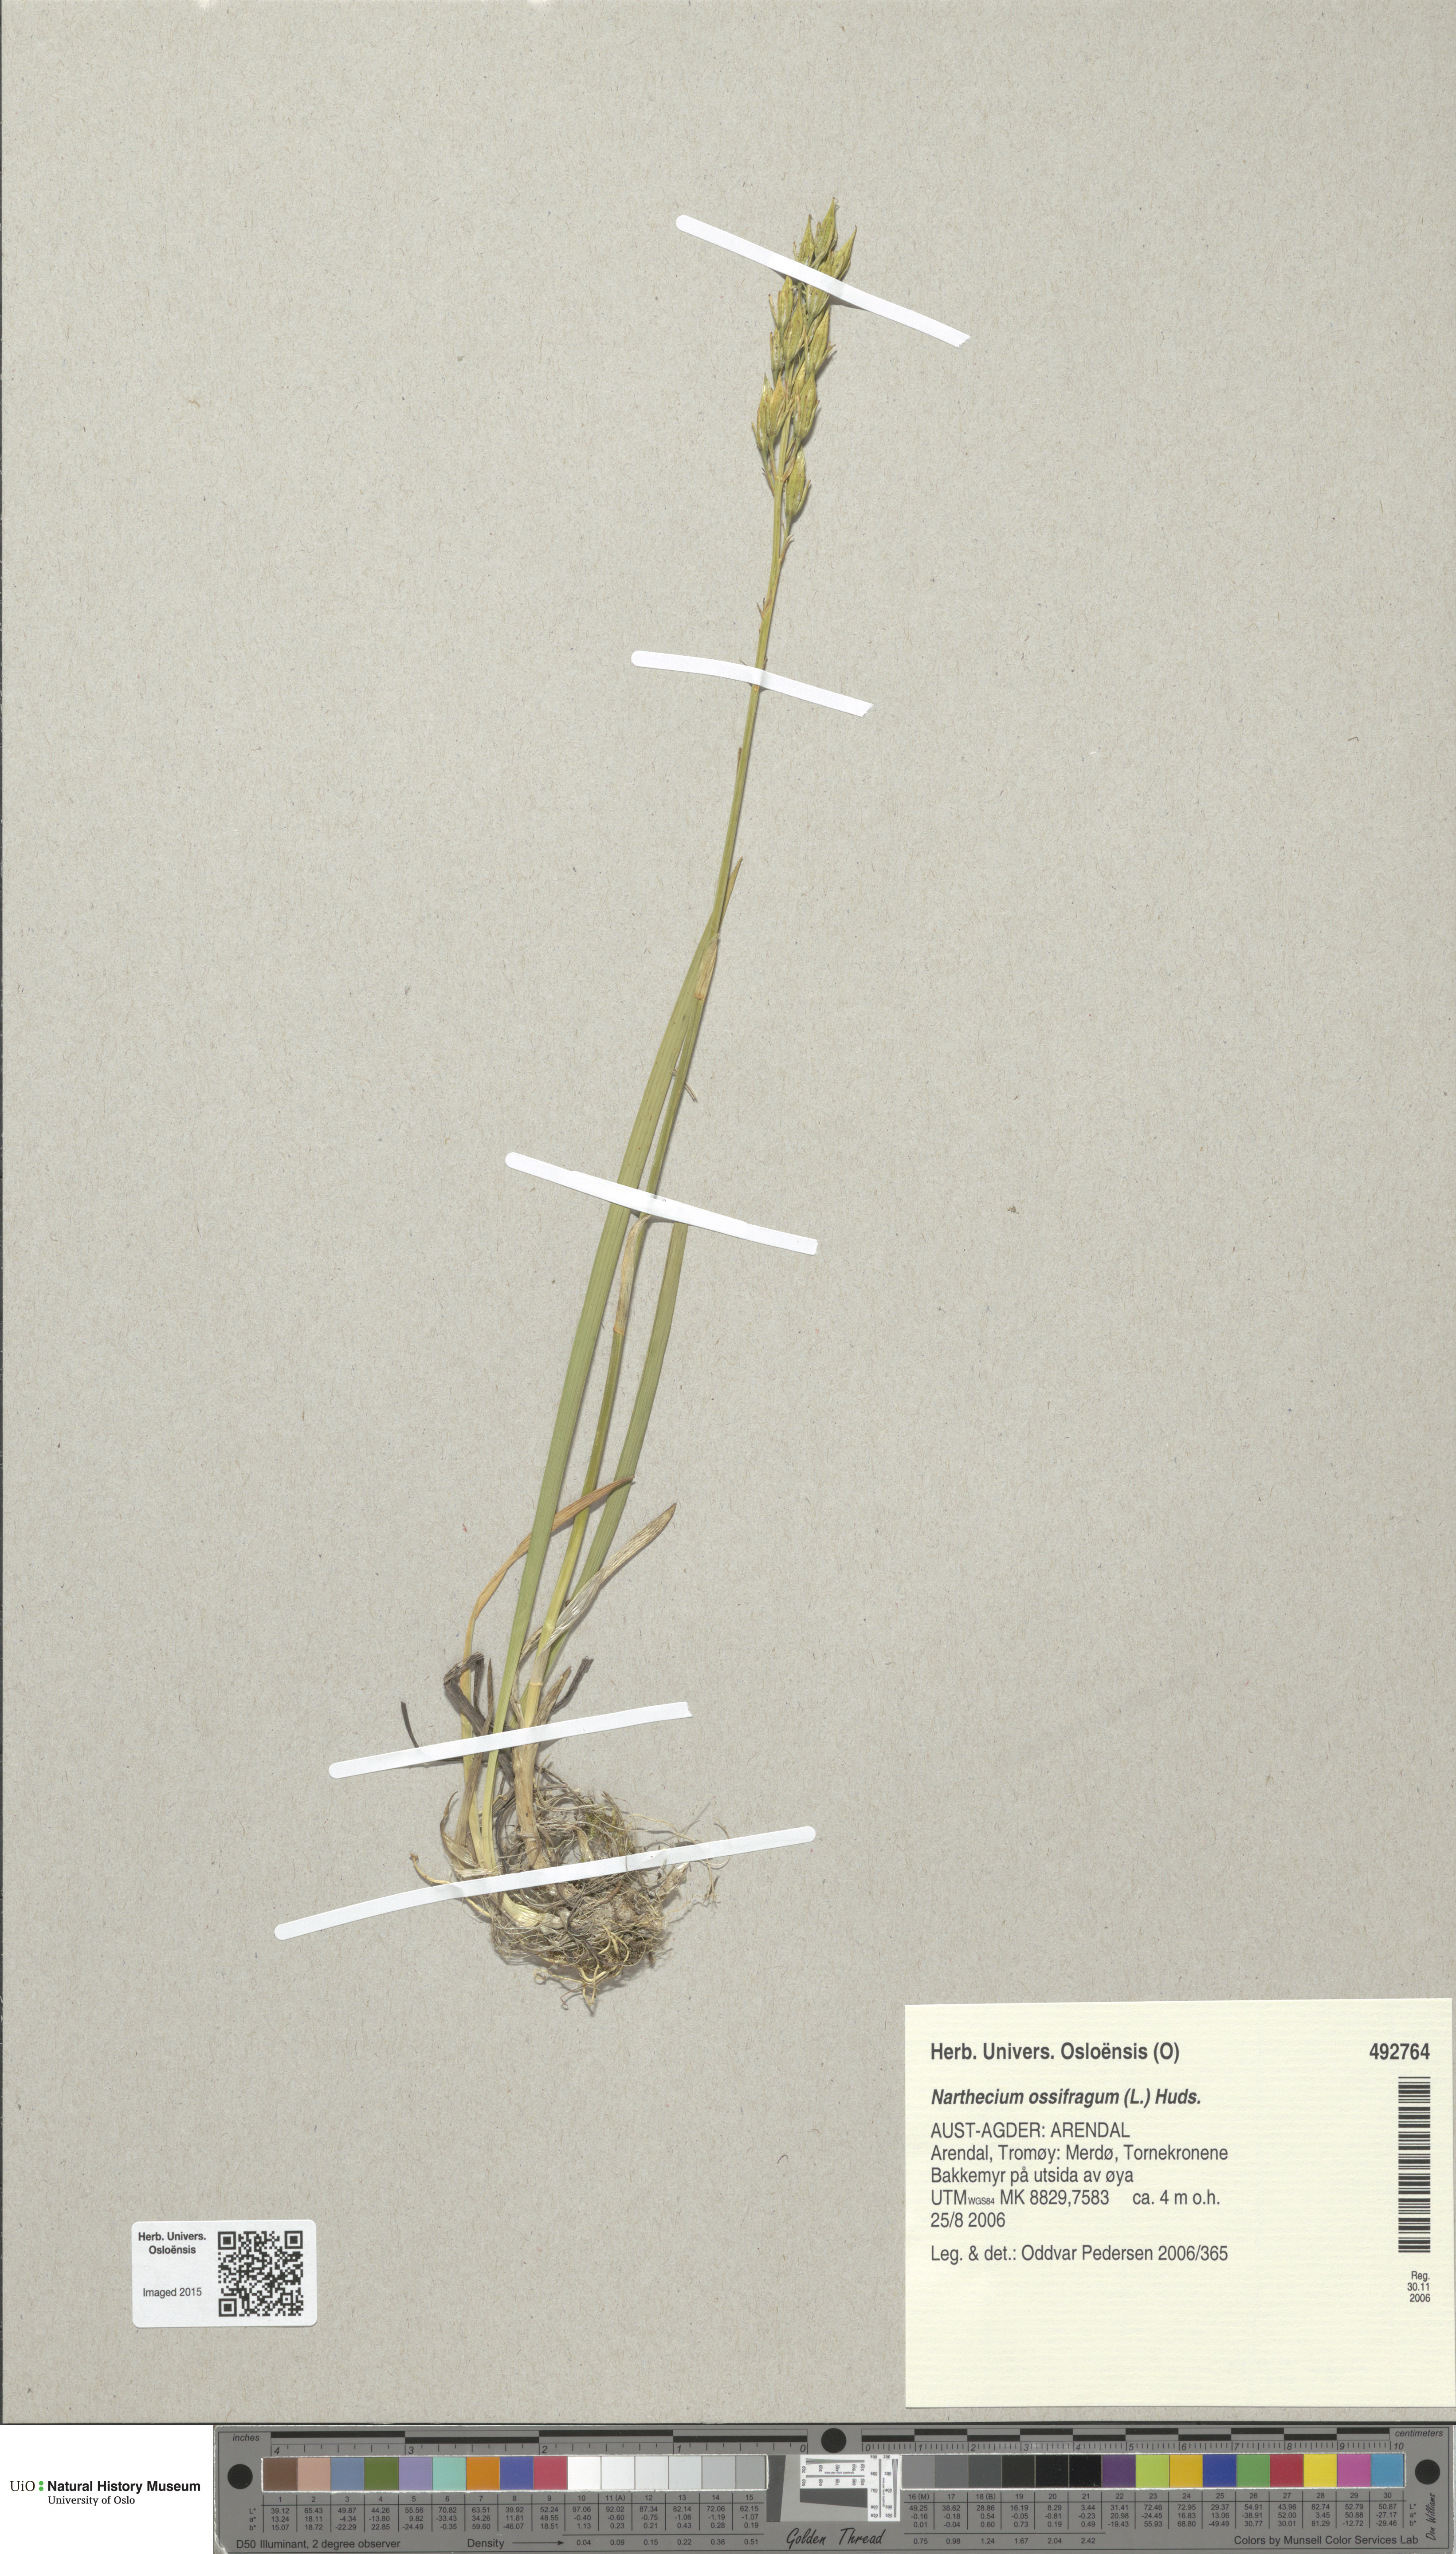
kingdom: Plantae
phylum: Tracheophyta
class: Liliopsida
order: Dioscoreales
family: Nartheciaceae
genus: Narthecium
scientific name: Narthecium ossifragum
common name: Bog asphodel
